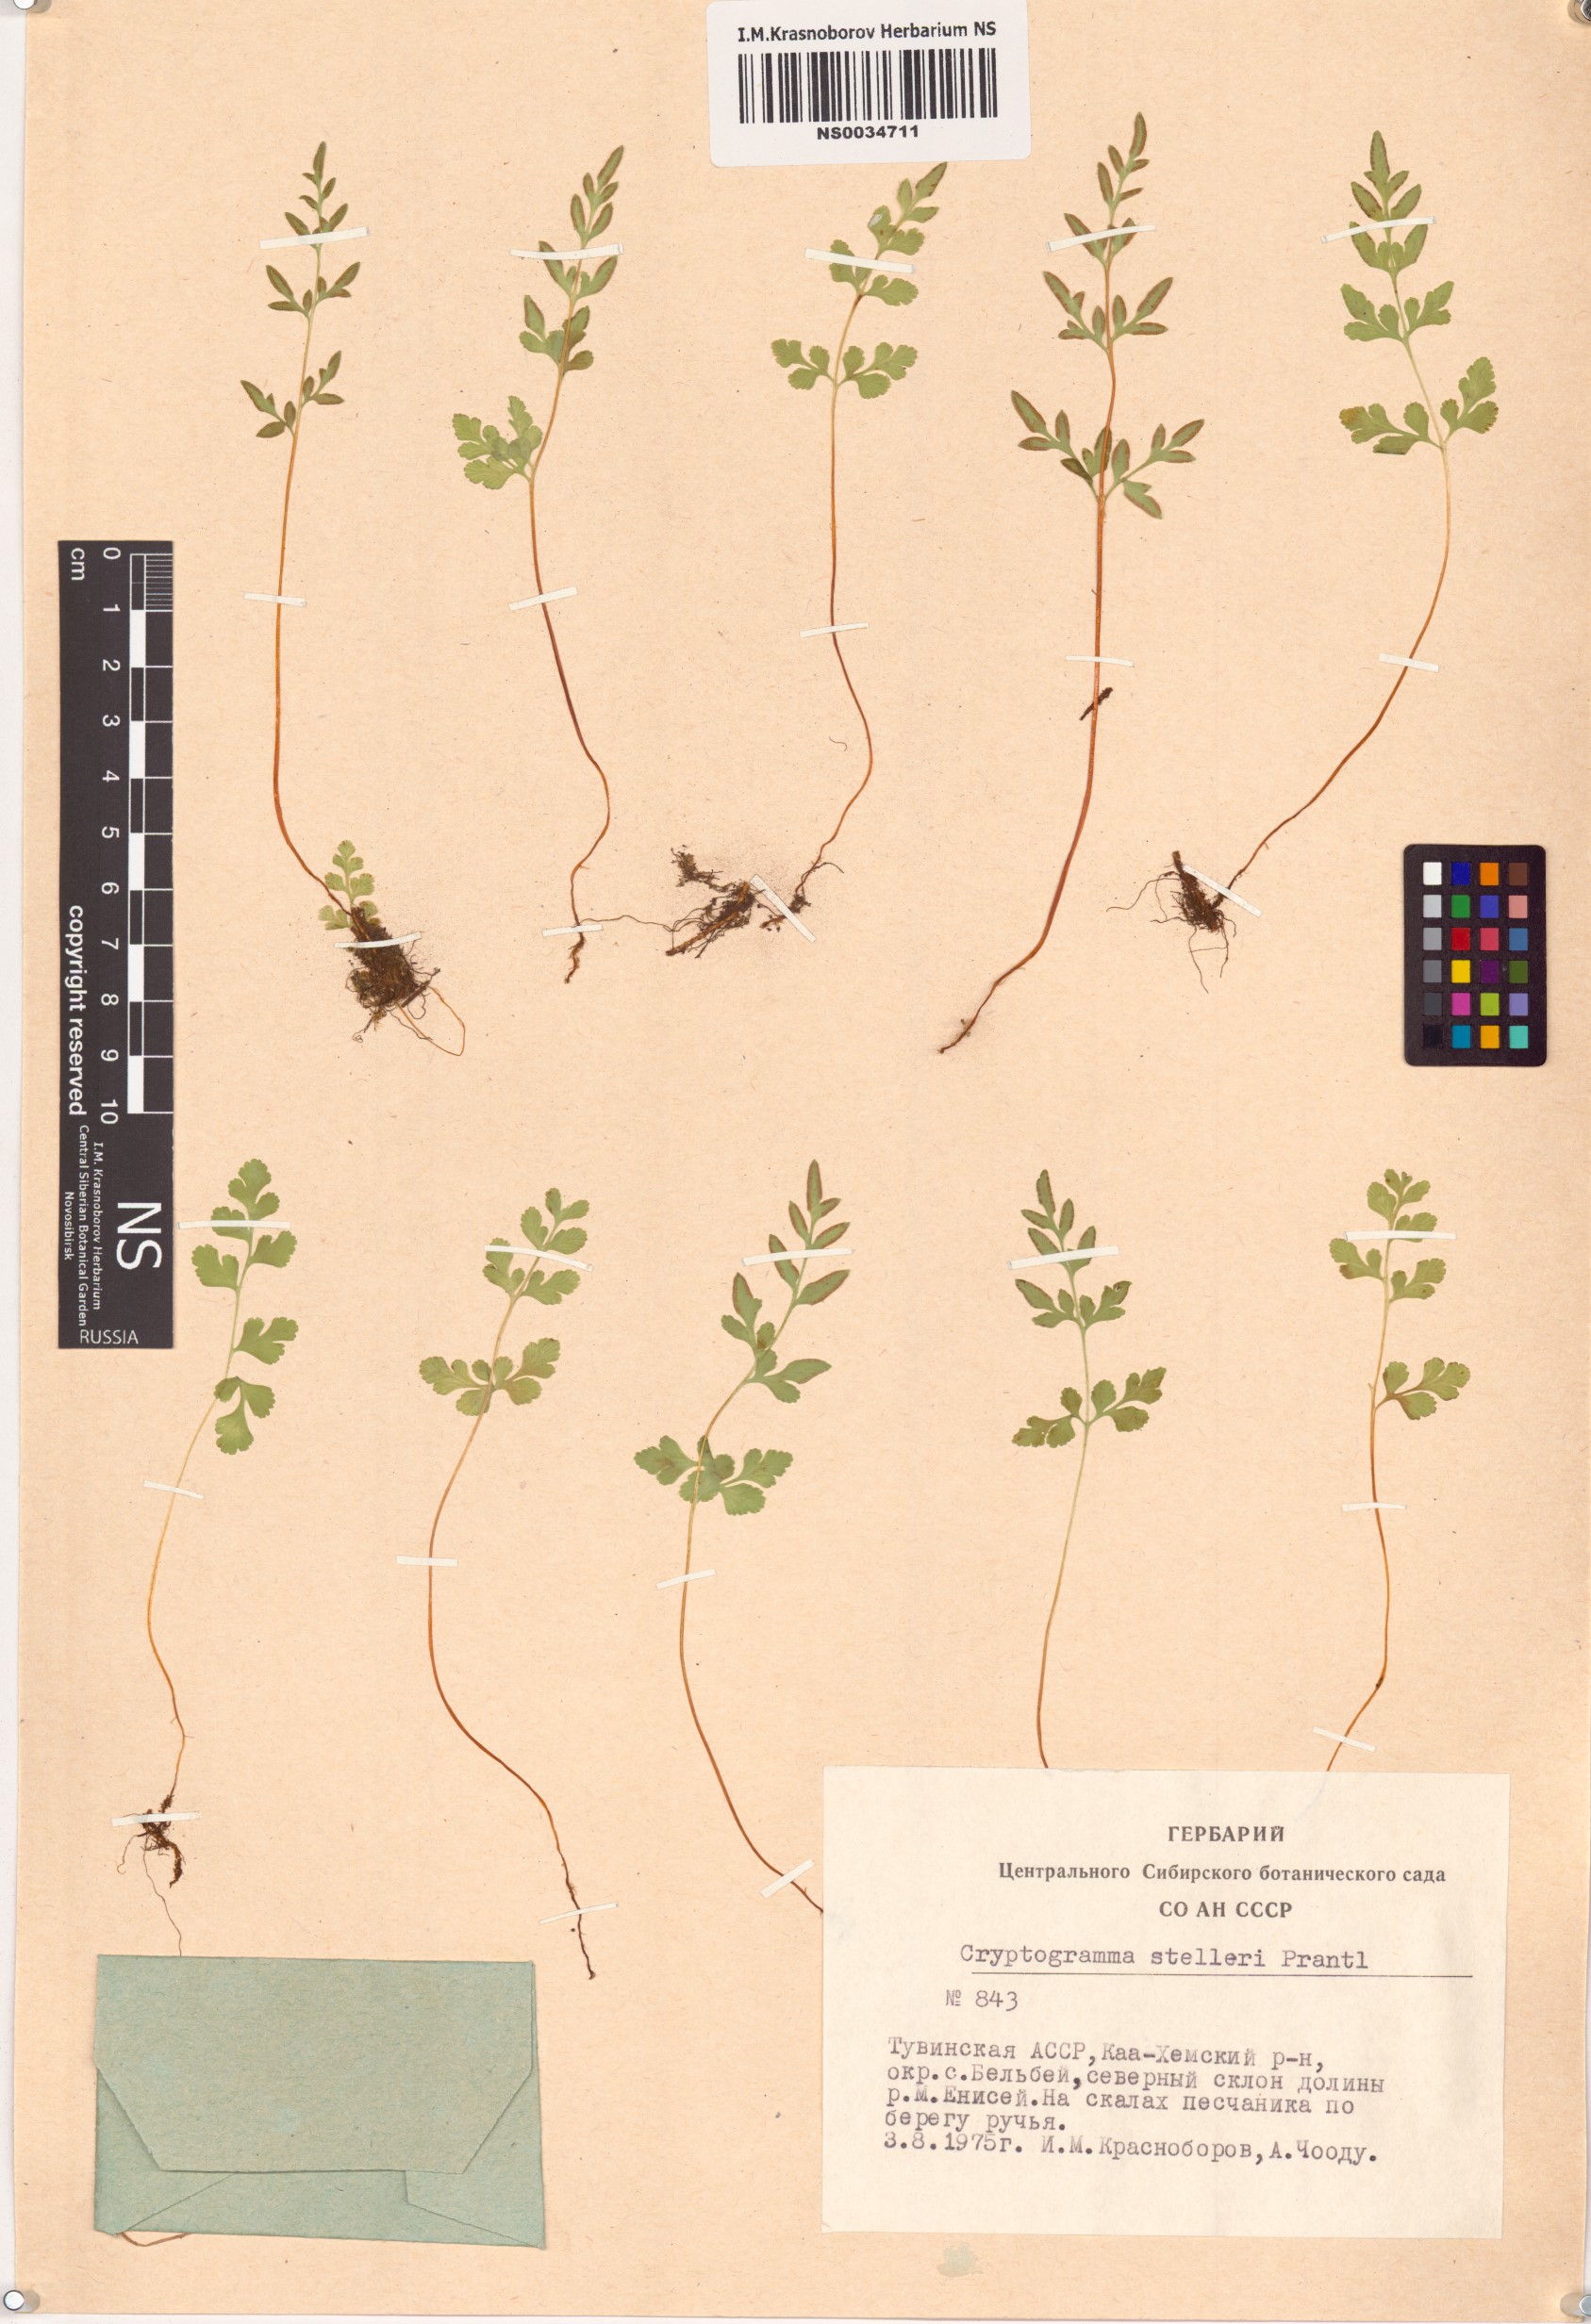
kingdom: Plantae
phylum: Tracheophyta
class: Polypodiopsida
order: Polypodiales
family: Pteridaceae
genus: Cryptogramma
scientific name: Cryptogramma stelleri
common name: Cliff-brake
